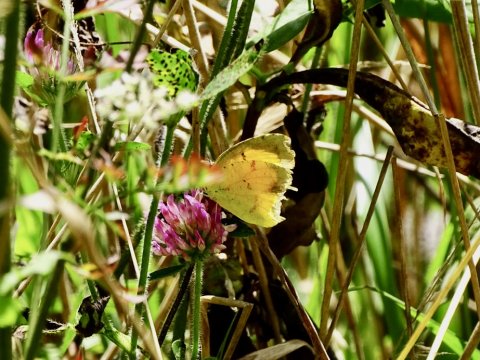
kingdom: Animalia
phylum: Arthropoda
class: Insecta
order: Lepidoptera
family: Pieridae
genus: Abaeis
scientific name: Abaeis nicippe
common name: Sleepy Orange
